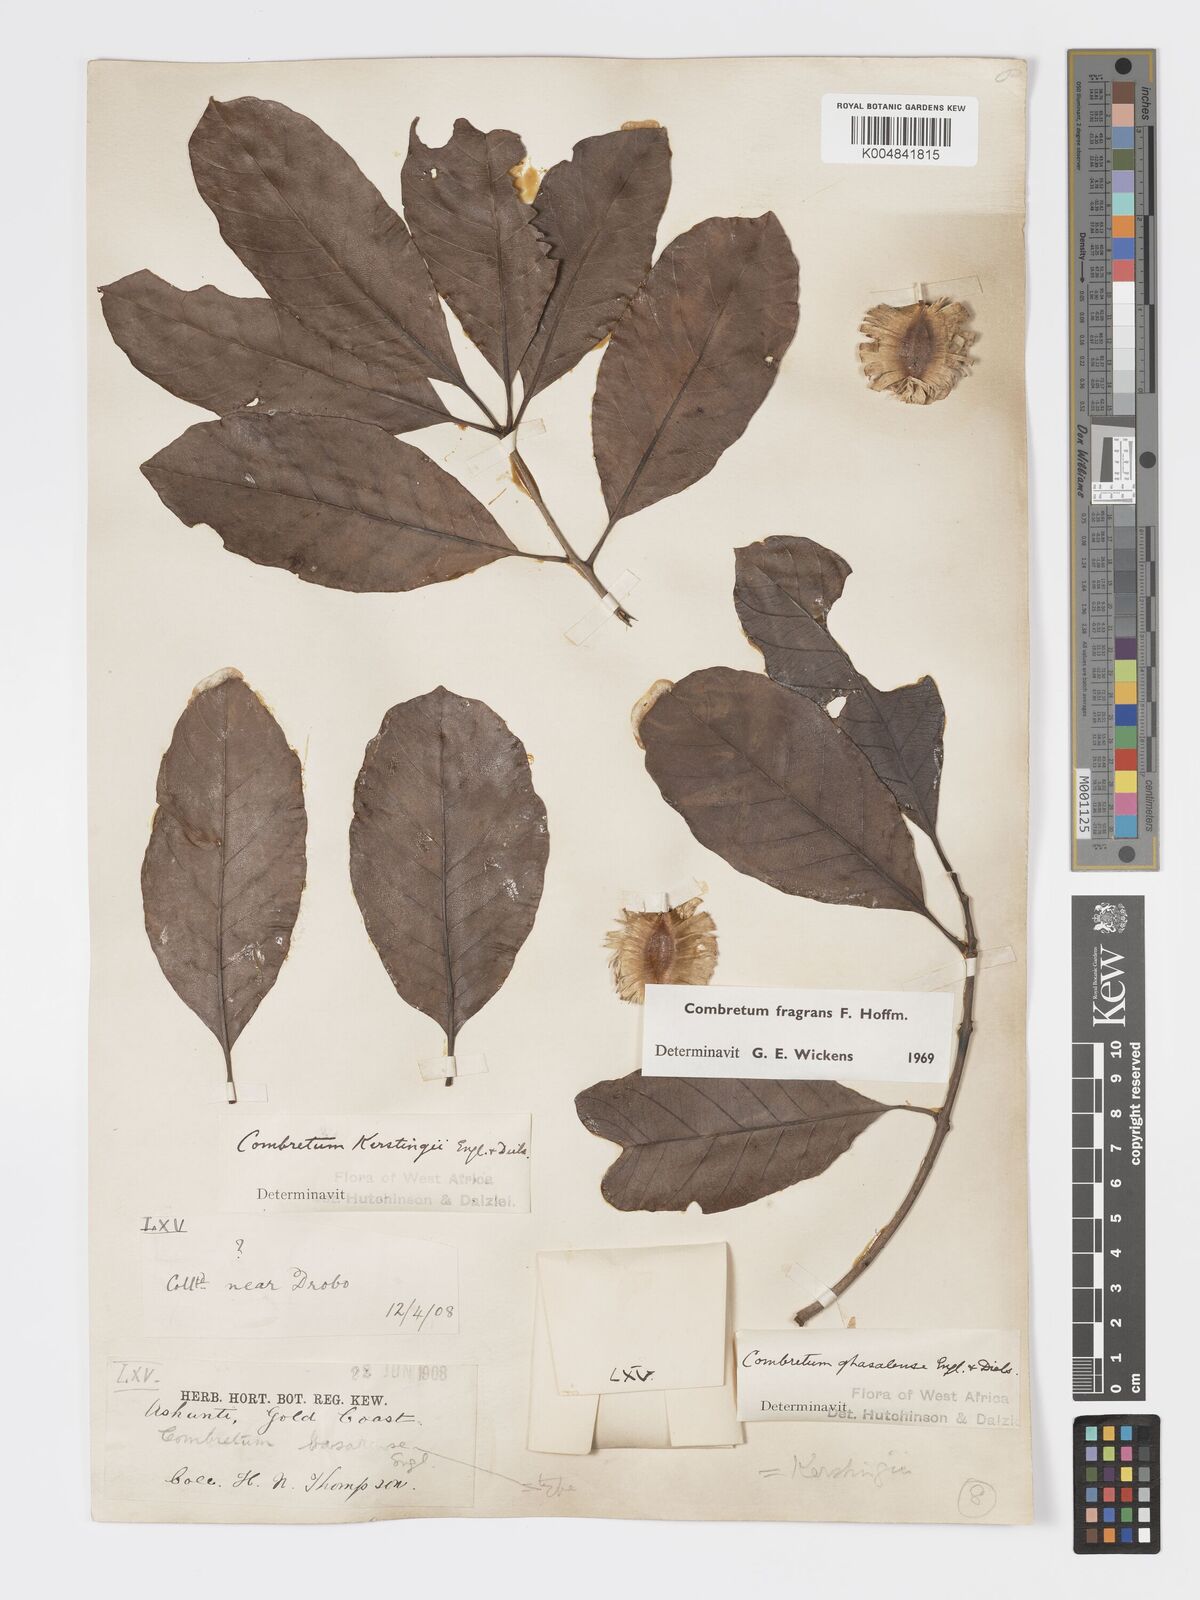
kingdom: Plantae
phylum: Tracheophyta
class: Magnoliopsida
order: Myrtales
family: Combretaceae
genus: Combretum
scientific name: Combretum adenogonium
